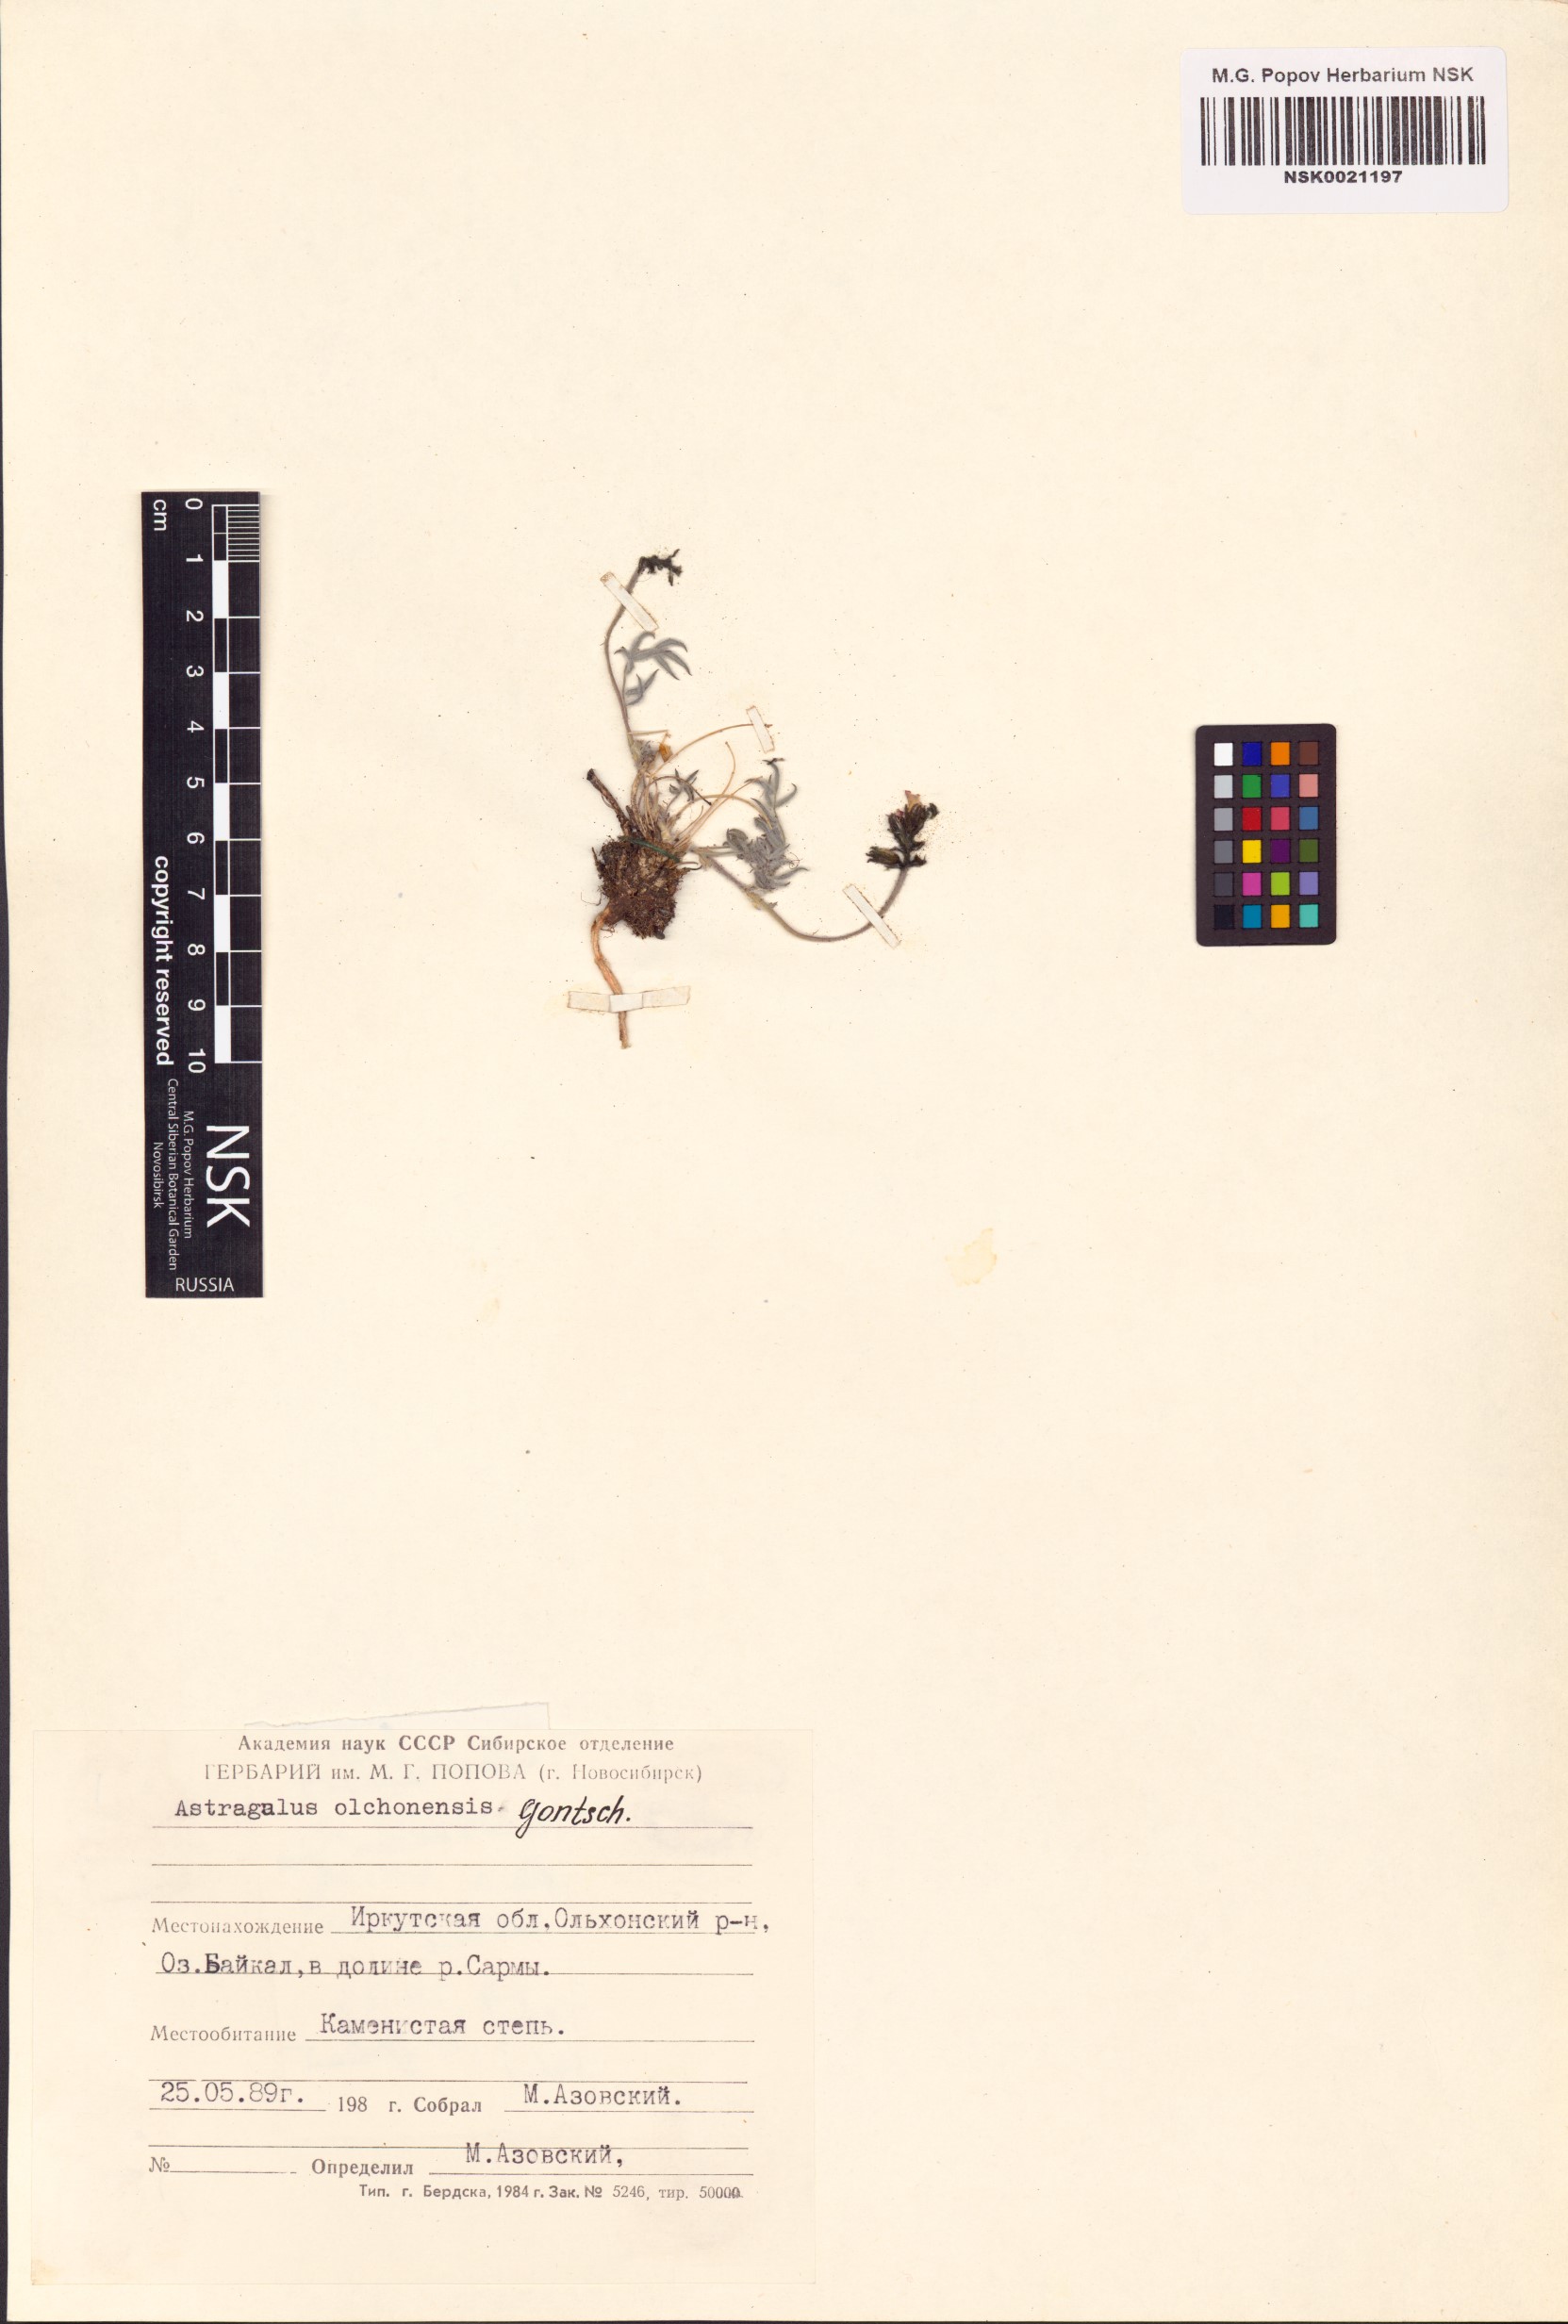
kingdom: Plantae
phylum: Tracheophyta
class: Magnoliopsida
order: Fabales
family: Fabaceae
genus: Astragalus
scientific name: Astragalus olchonensis
